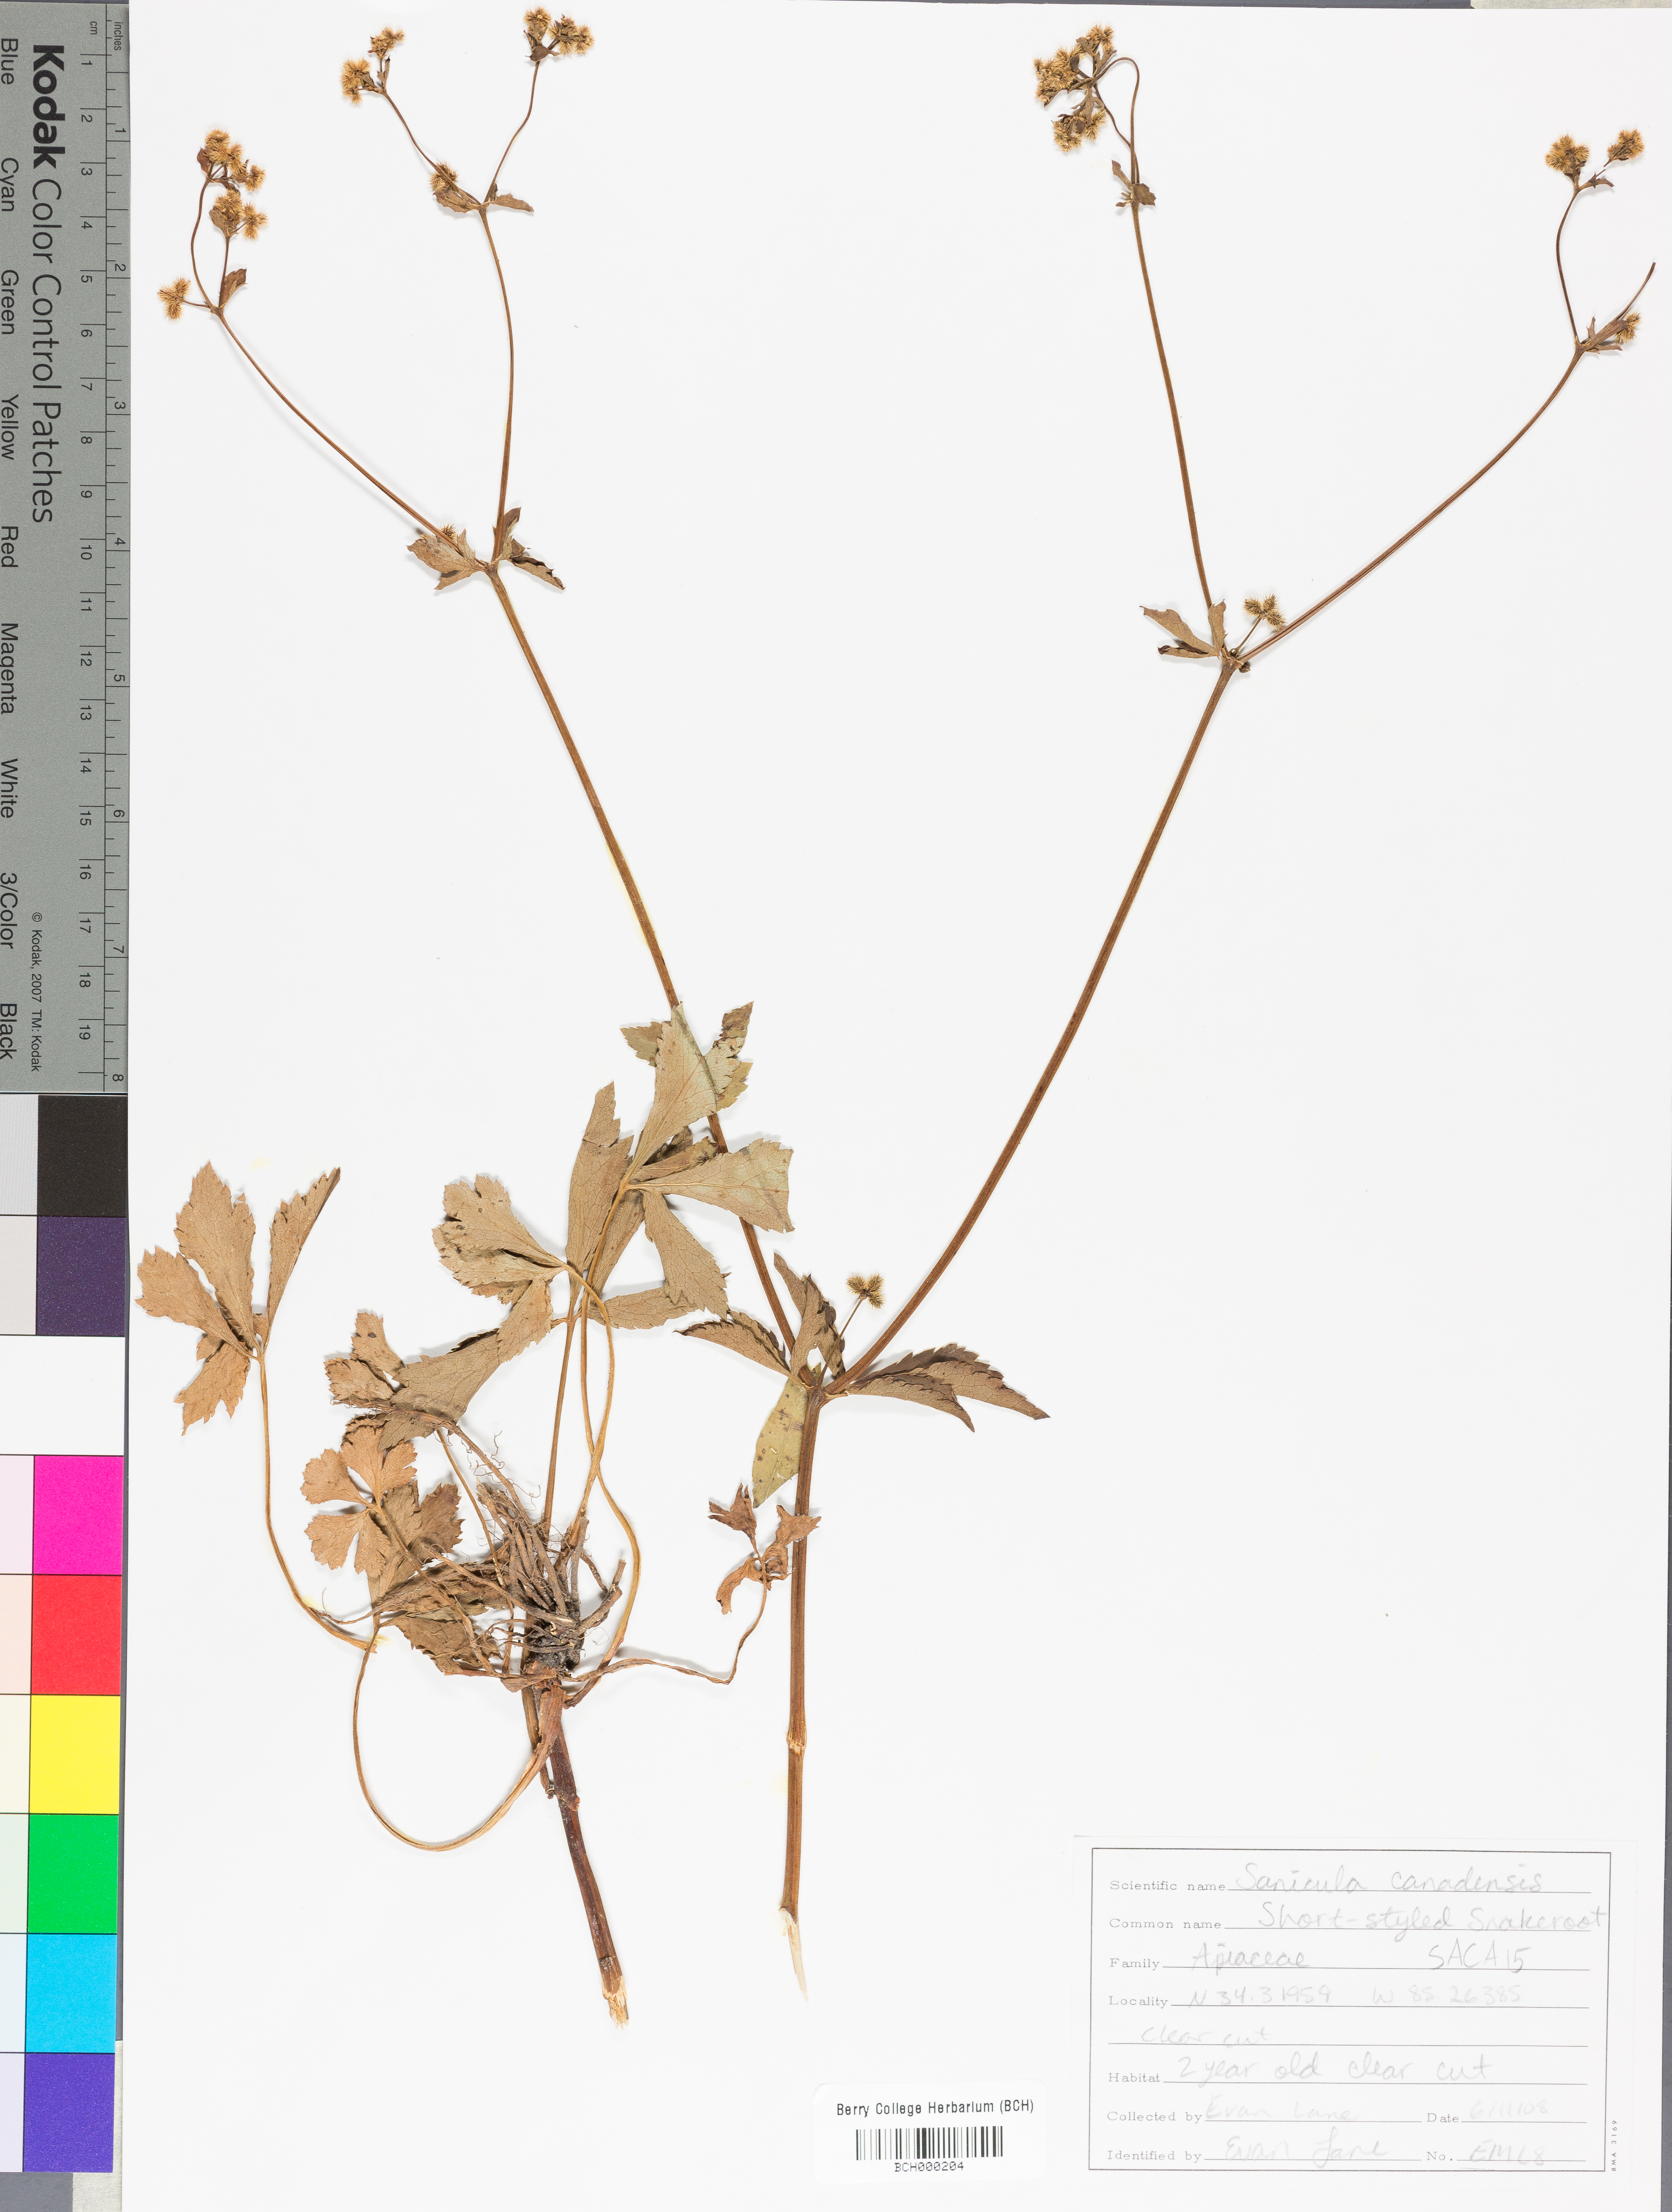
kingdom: Plantae
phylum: Tracheophyta
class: Magnoliopsida
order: Apiales
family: Apiaceae
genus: Sanicula
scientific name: Sanicula canadensis
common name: Canada sanicle
